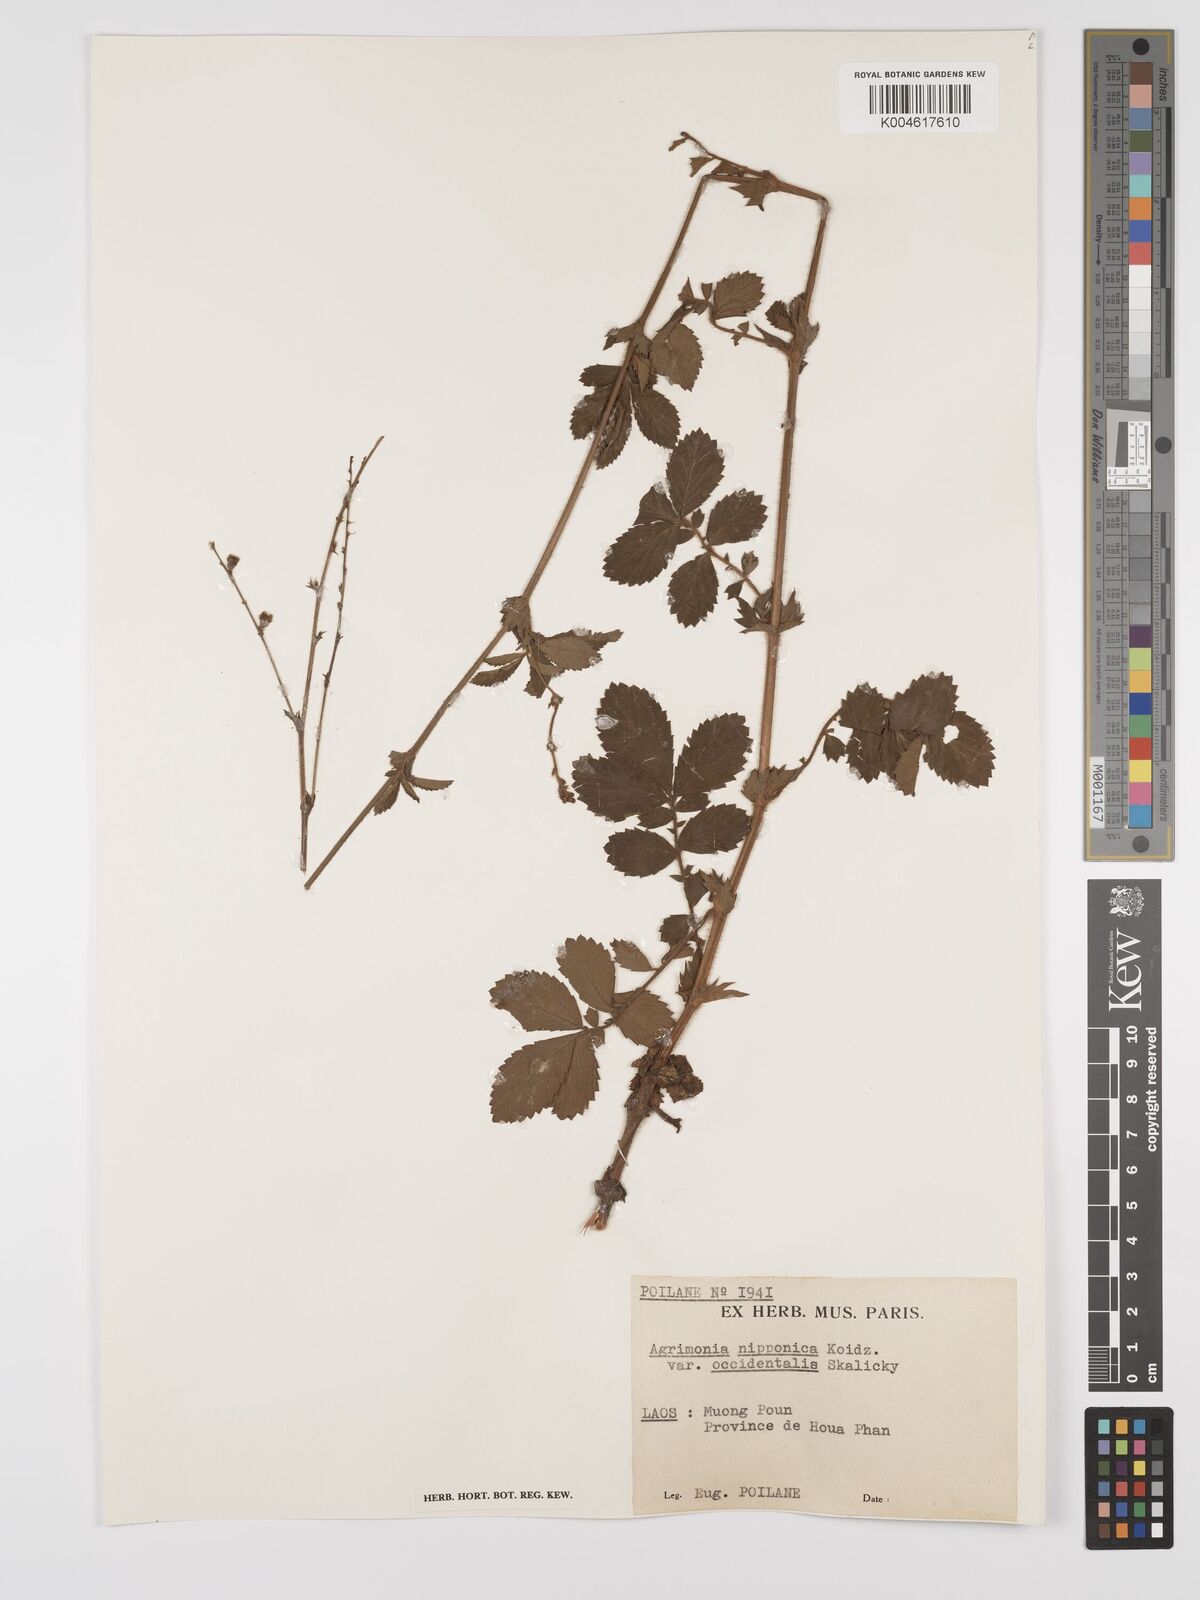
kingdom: Plantae
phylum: Tracheophyta
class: Magnoliopsida
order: Rosales
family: Rosaceae
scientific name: Rosaceae
